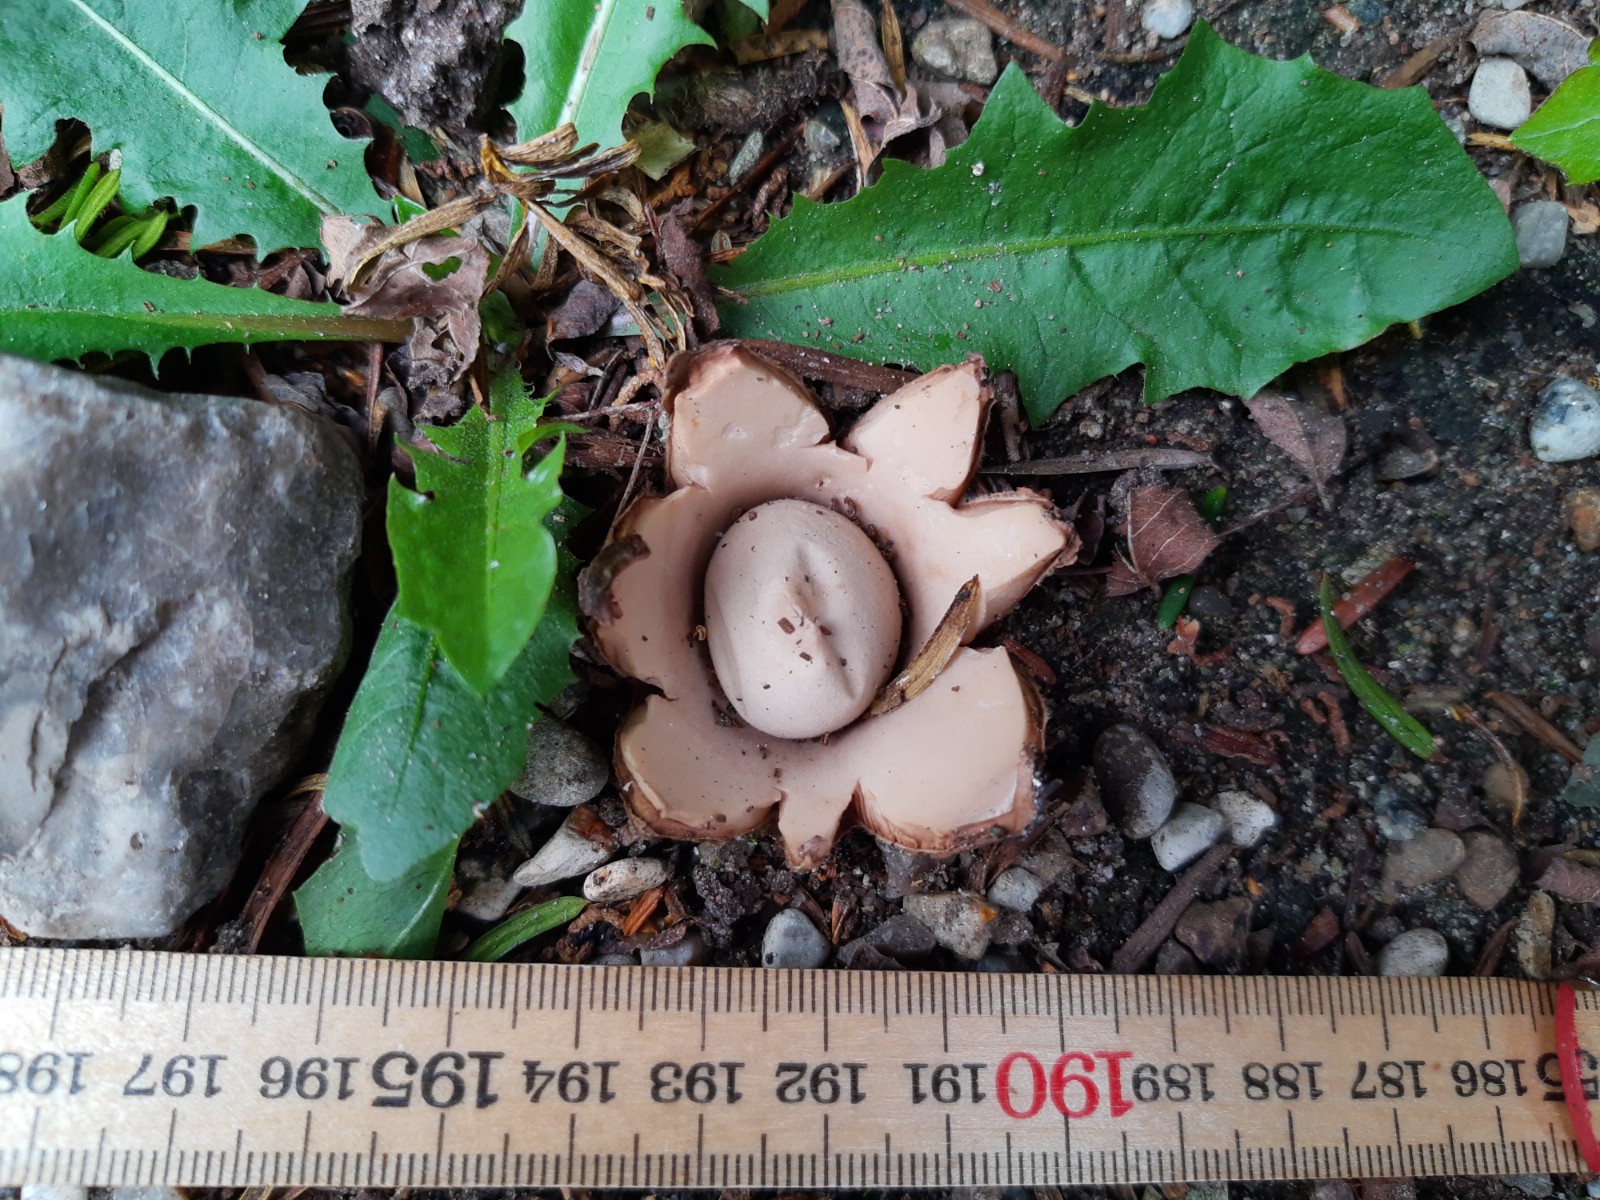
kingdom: Fungi
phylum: Basidiomycota
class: Agaricomycetes
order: Geastrales
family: Geastraceae
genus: Geastrum
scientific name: Geastrum michelianum
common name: kødet stjernebold
